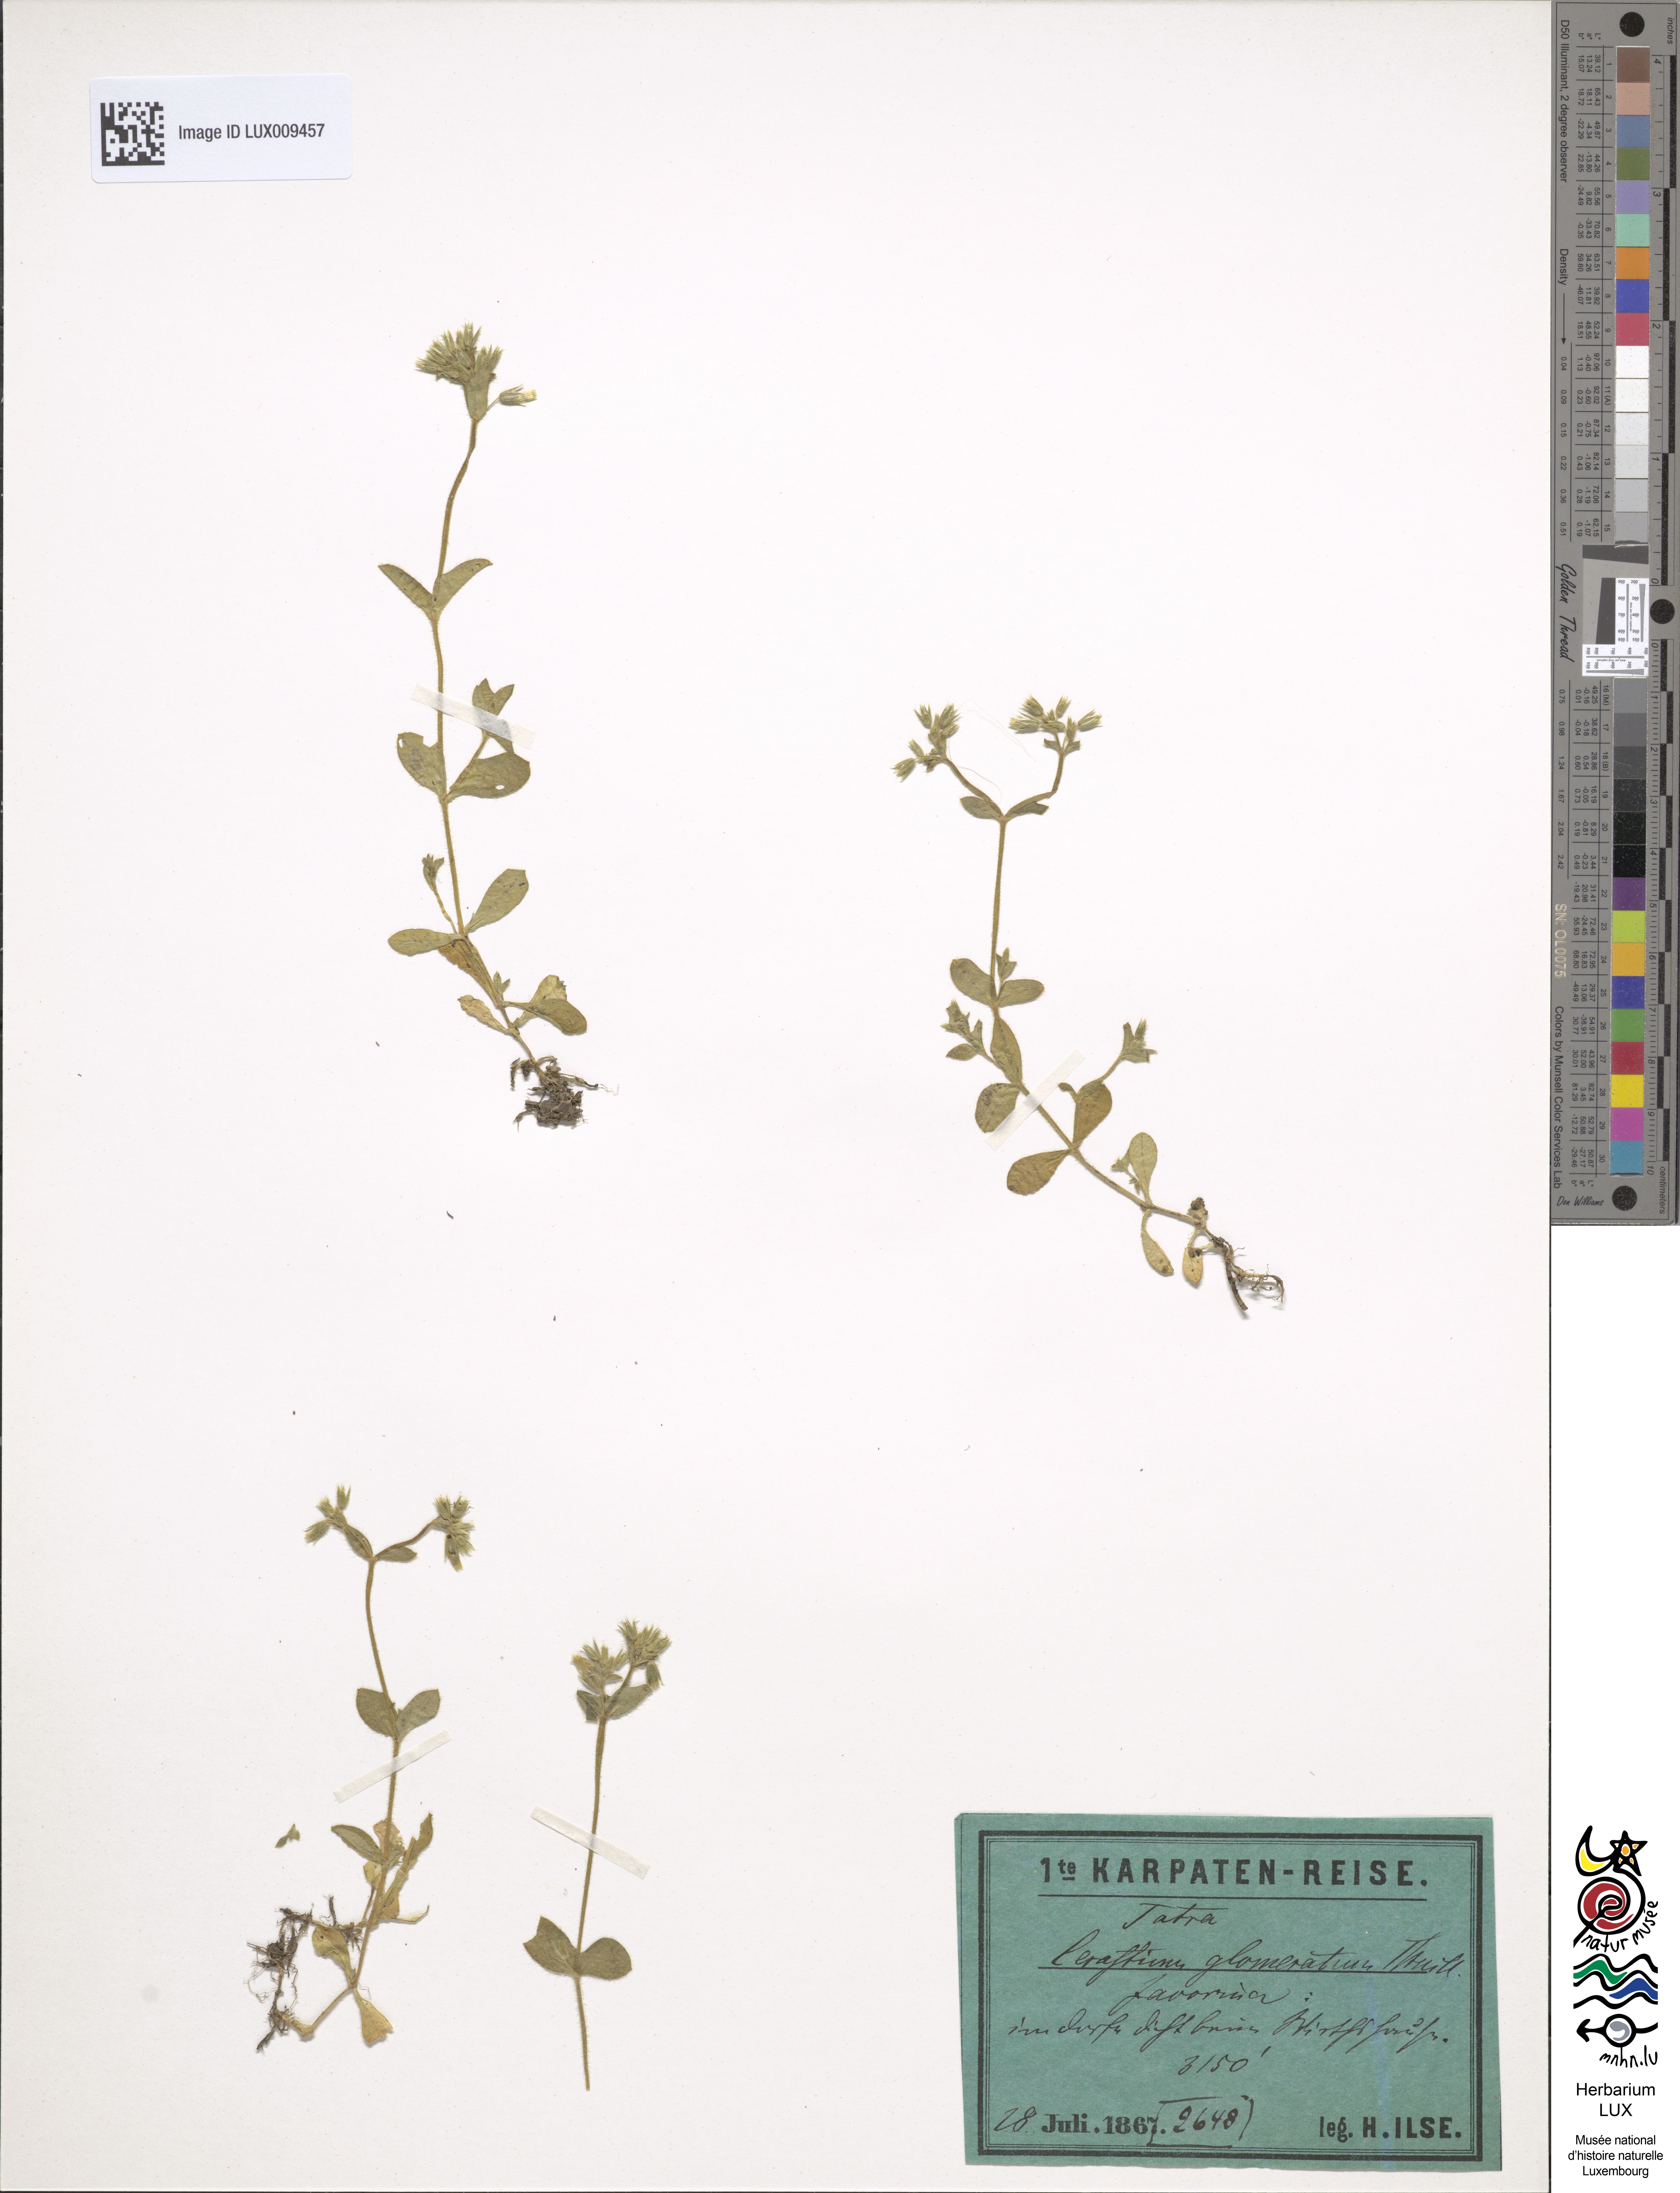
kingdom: Plantae
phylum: Tracheophyta
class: Magnoliopsida
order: Caryophyllales
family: Caryophyllaceae
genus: Cerastium
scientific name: Cerastium glomeratum
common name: Sticky chickweed
